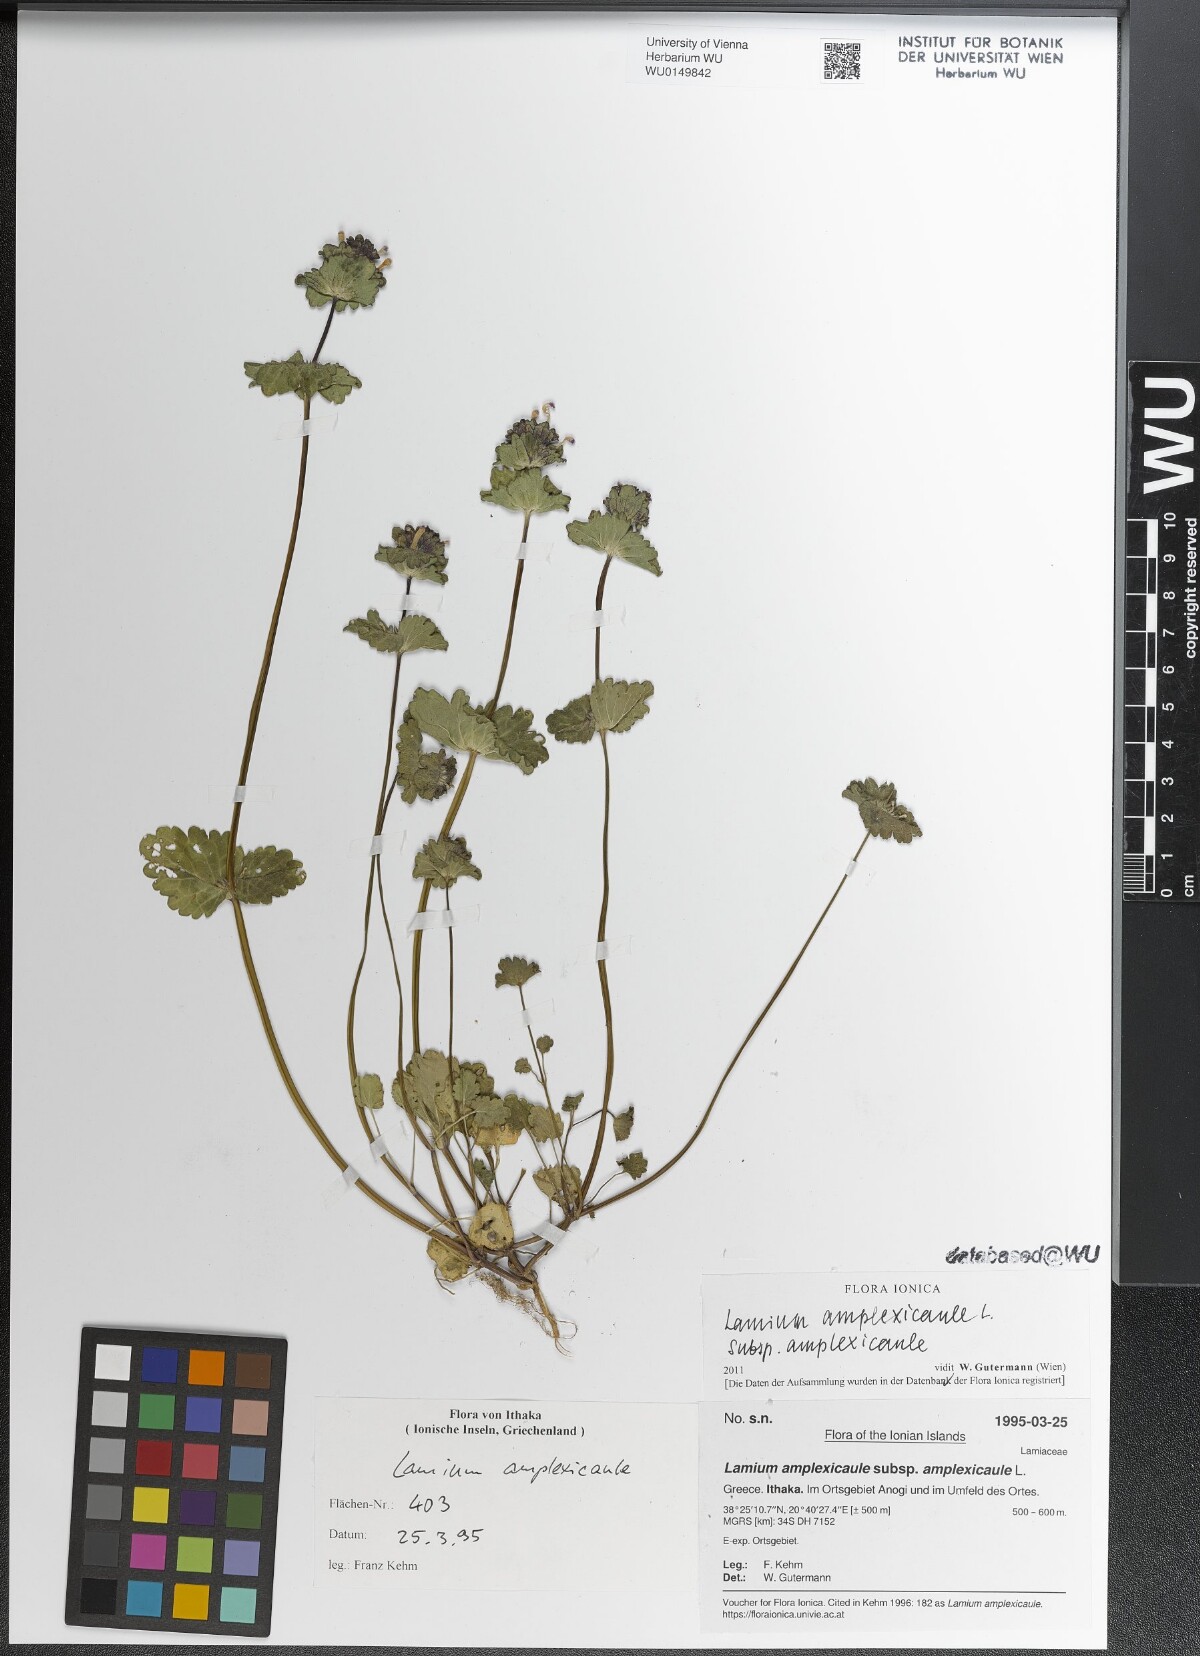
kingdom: Plantae
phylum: Tracheophyta
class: Magnoliopsida
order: Lamiales
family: Lamiaceae
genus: Lamium
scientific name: Lamium amplexicaule
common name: Henbit dead-nettle
